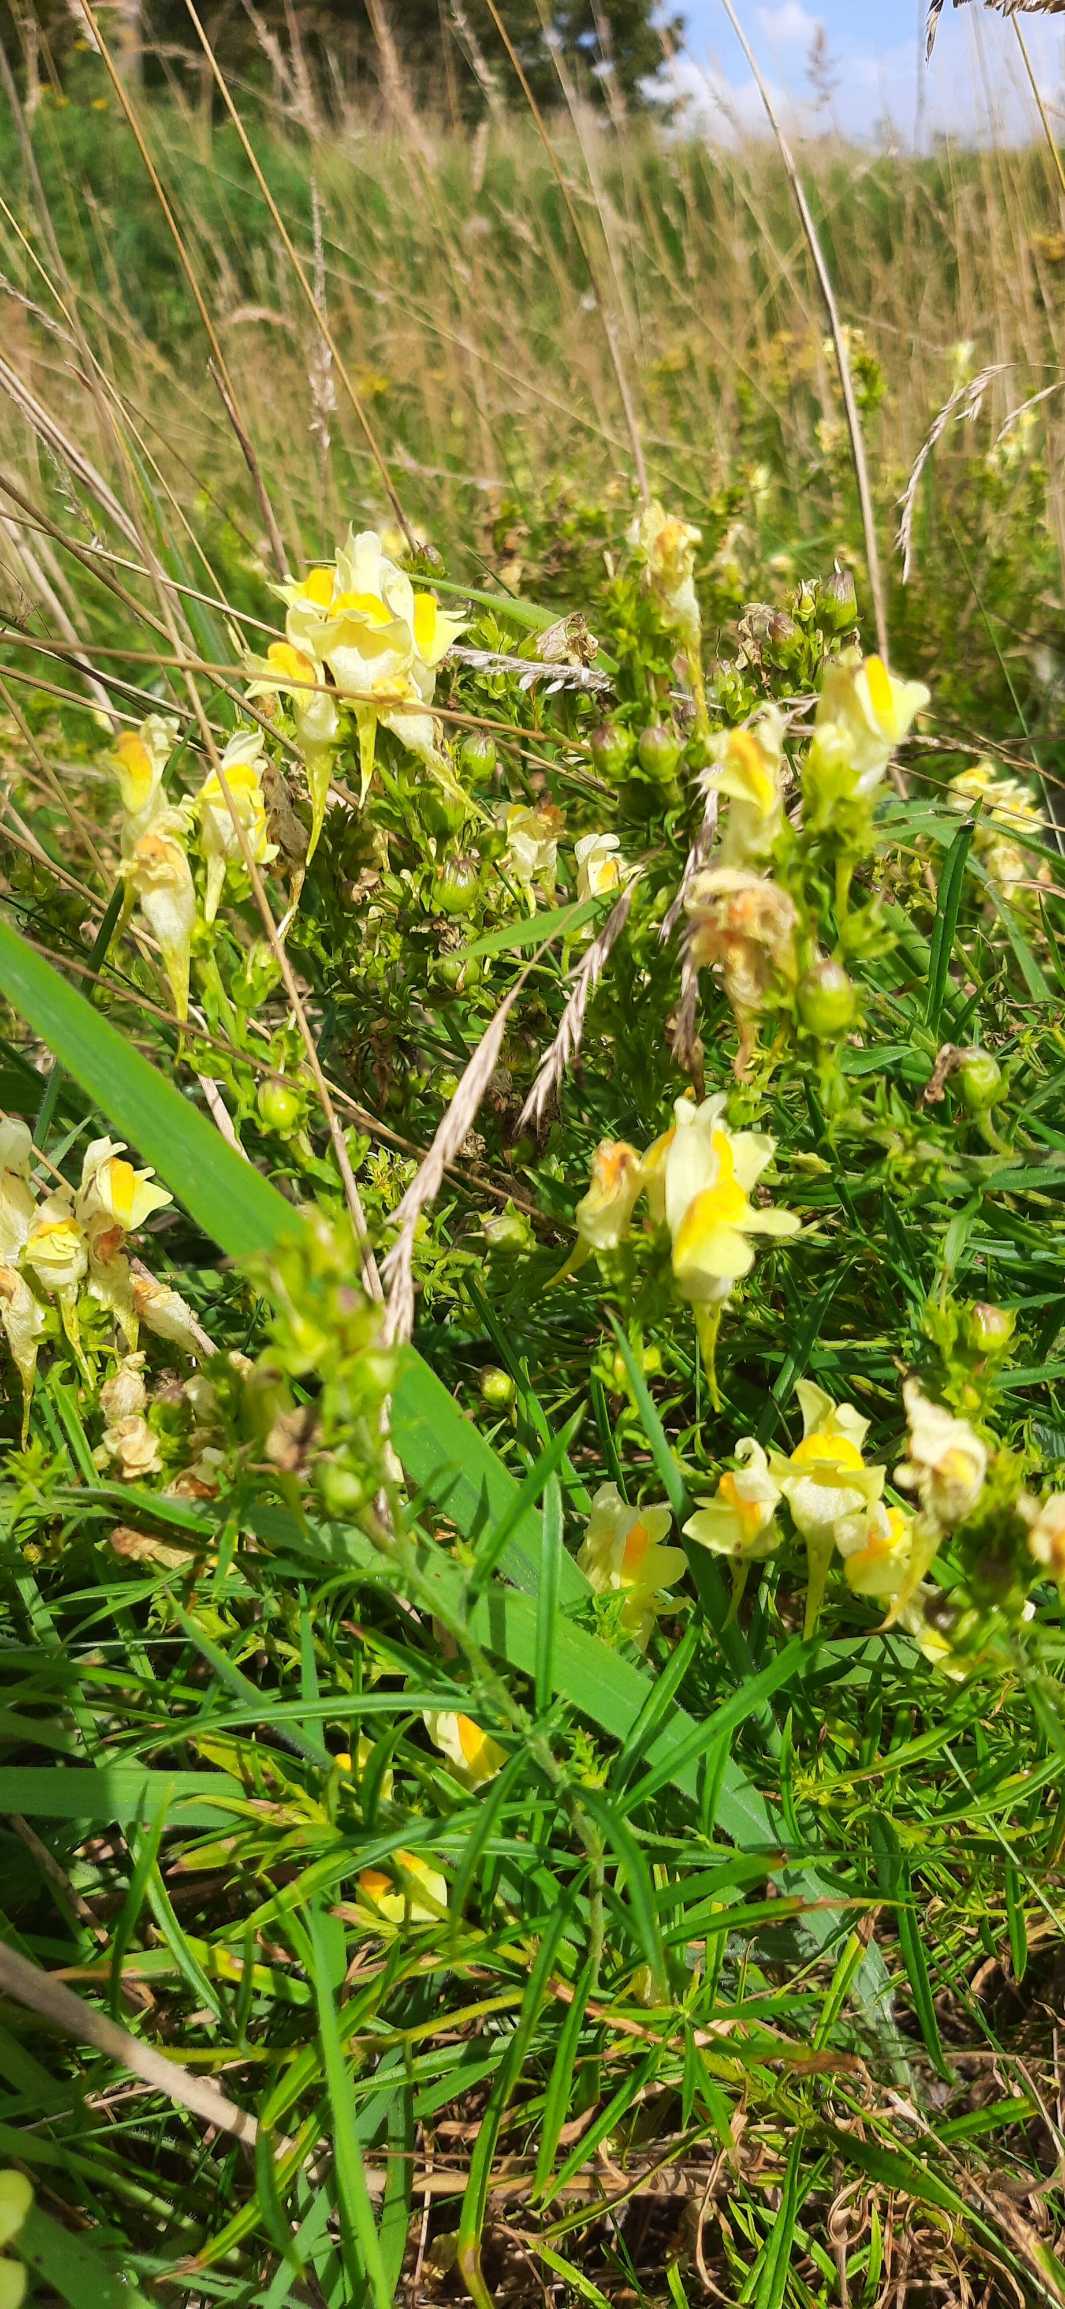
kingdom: Plantae
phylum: Tracheophyta
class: Magnoliopsida
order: Lamiales
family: Plantaginaceae
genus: Linaria
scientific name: Linaria vulgaris
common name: Almindelig torskemund
